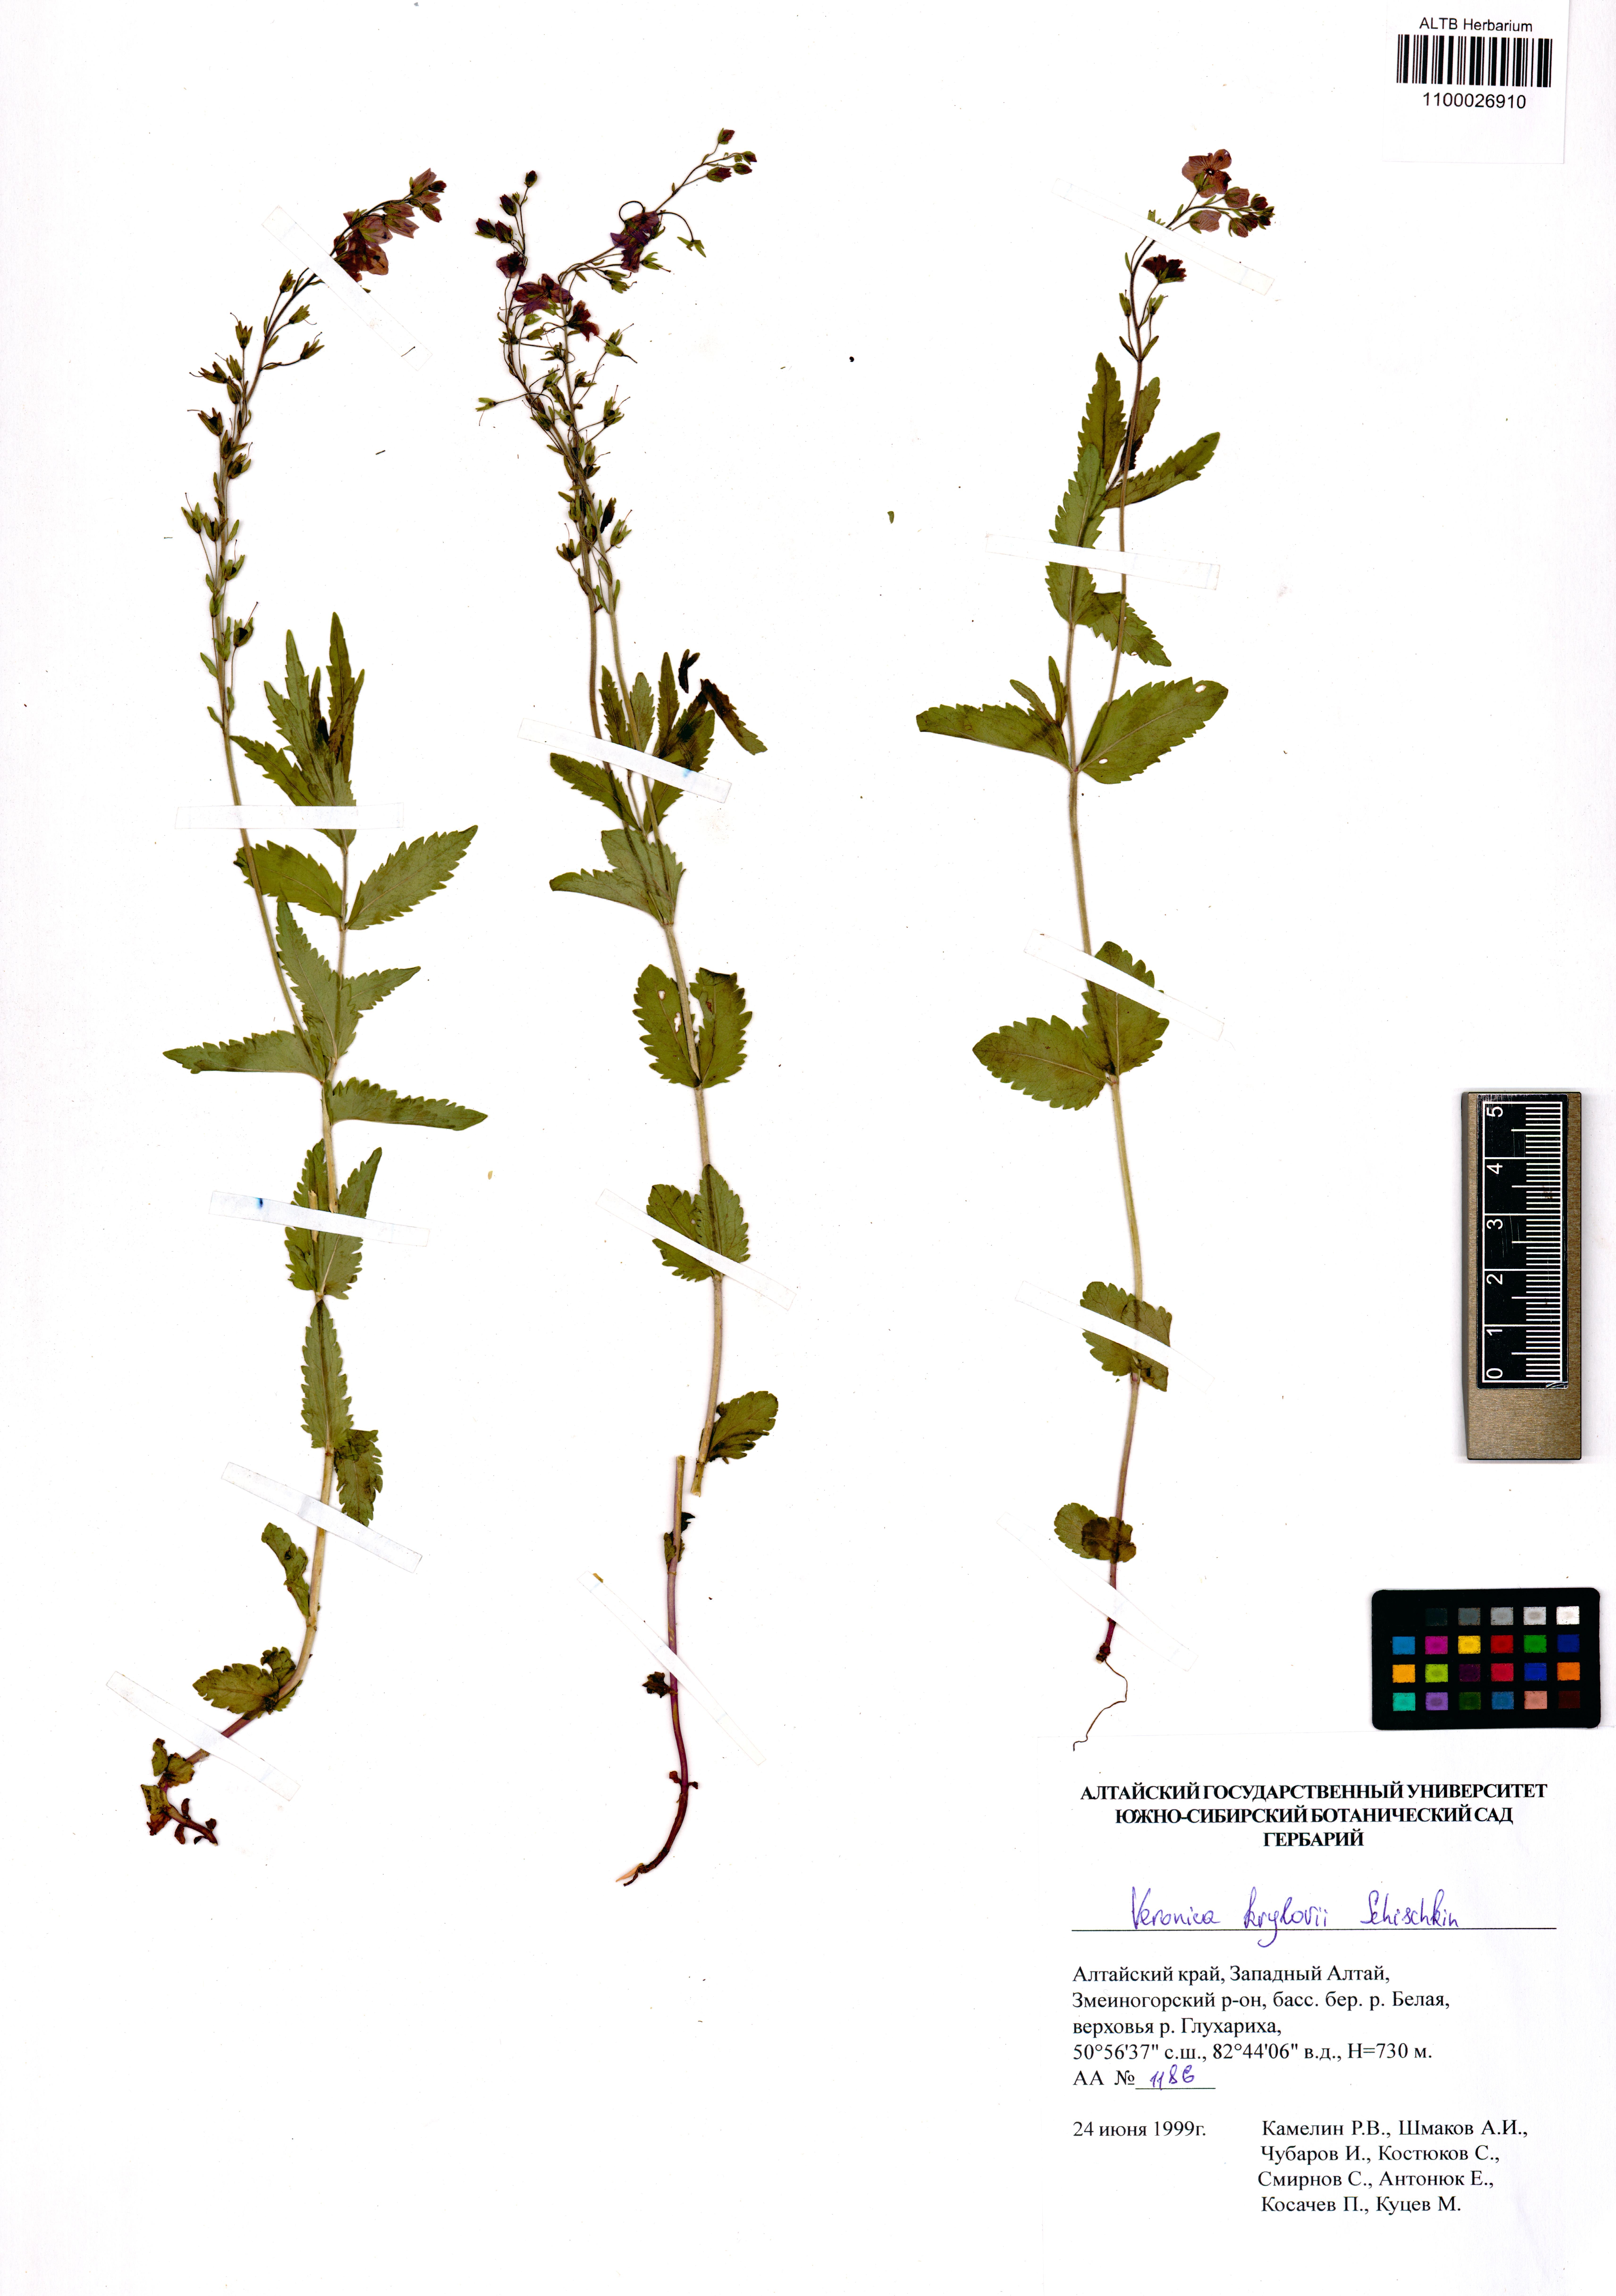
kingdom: Plantae
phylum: Tracheophyta
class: Magnoliopsida
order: Lamiales
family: Plantaginaceae
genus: Veronica
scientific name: Veronica krylovii
